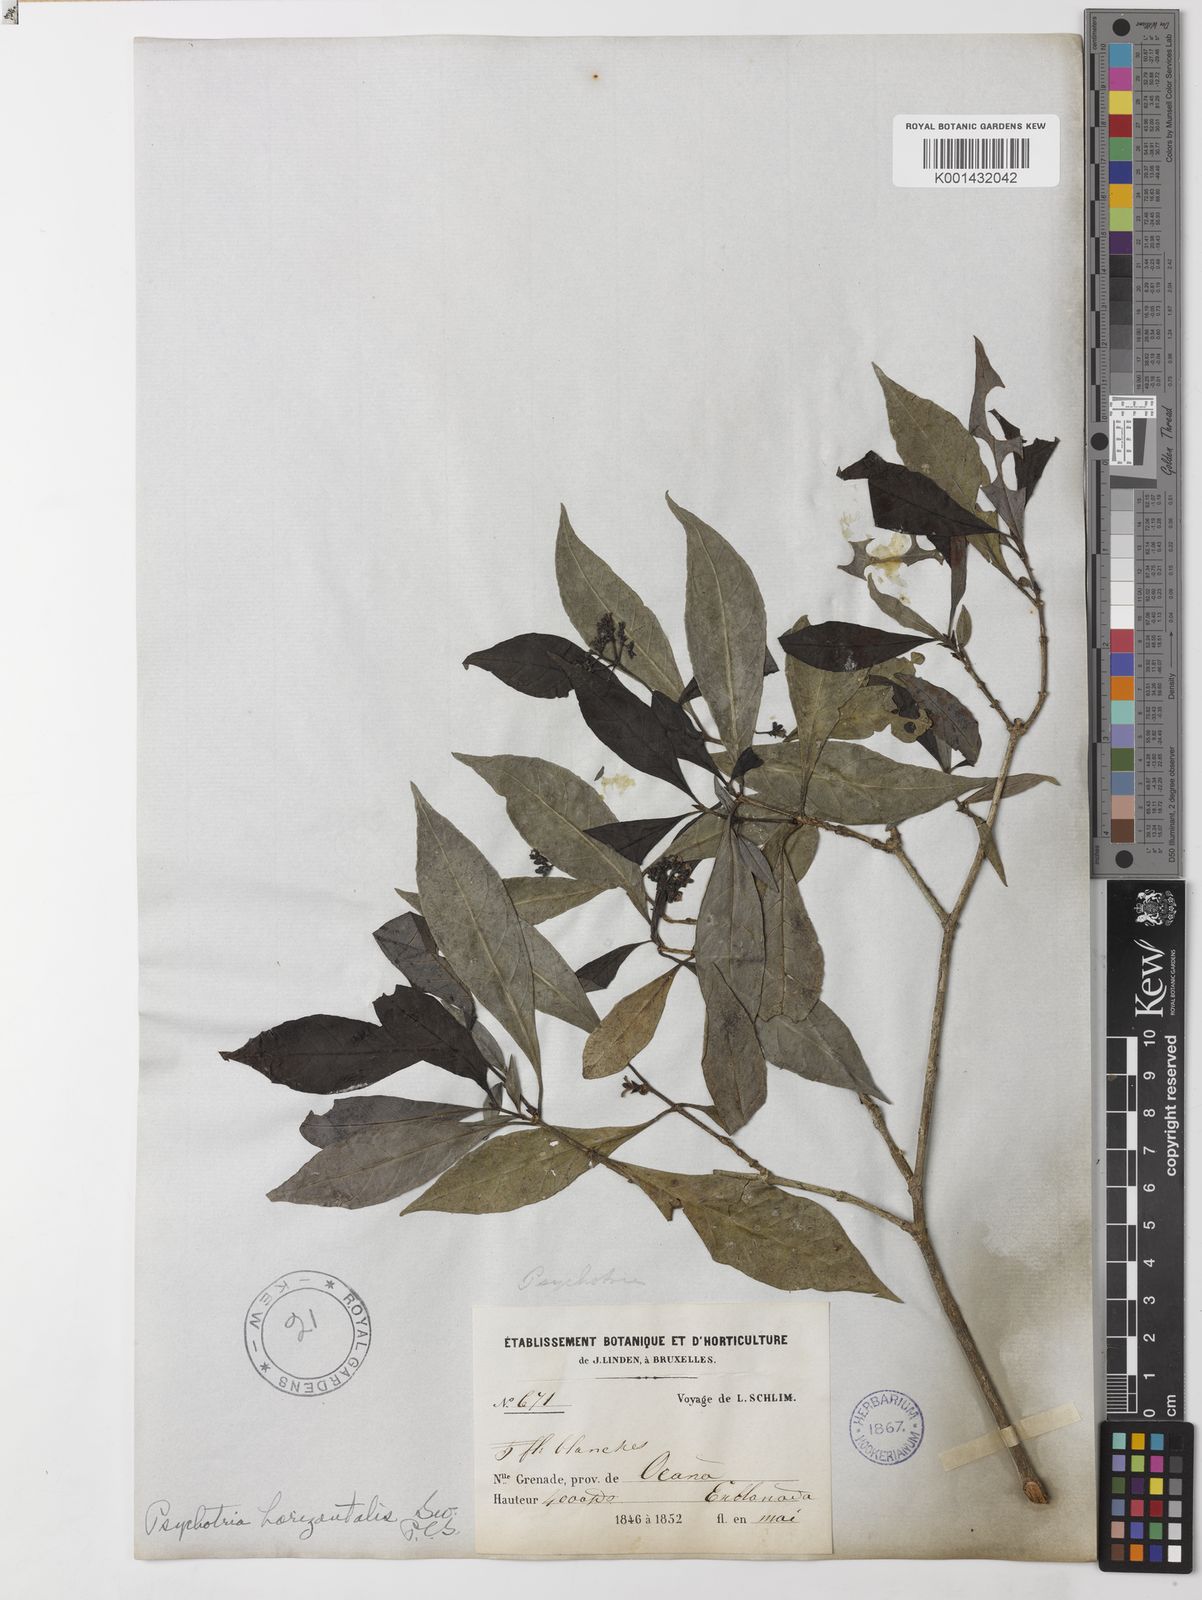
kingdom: Plantae
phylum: Tracheophyta
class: Magnoliopsida
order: Gentianales
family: Rubiaceae
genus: Psychotria
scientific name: Psychotria horizontalis
